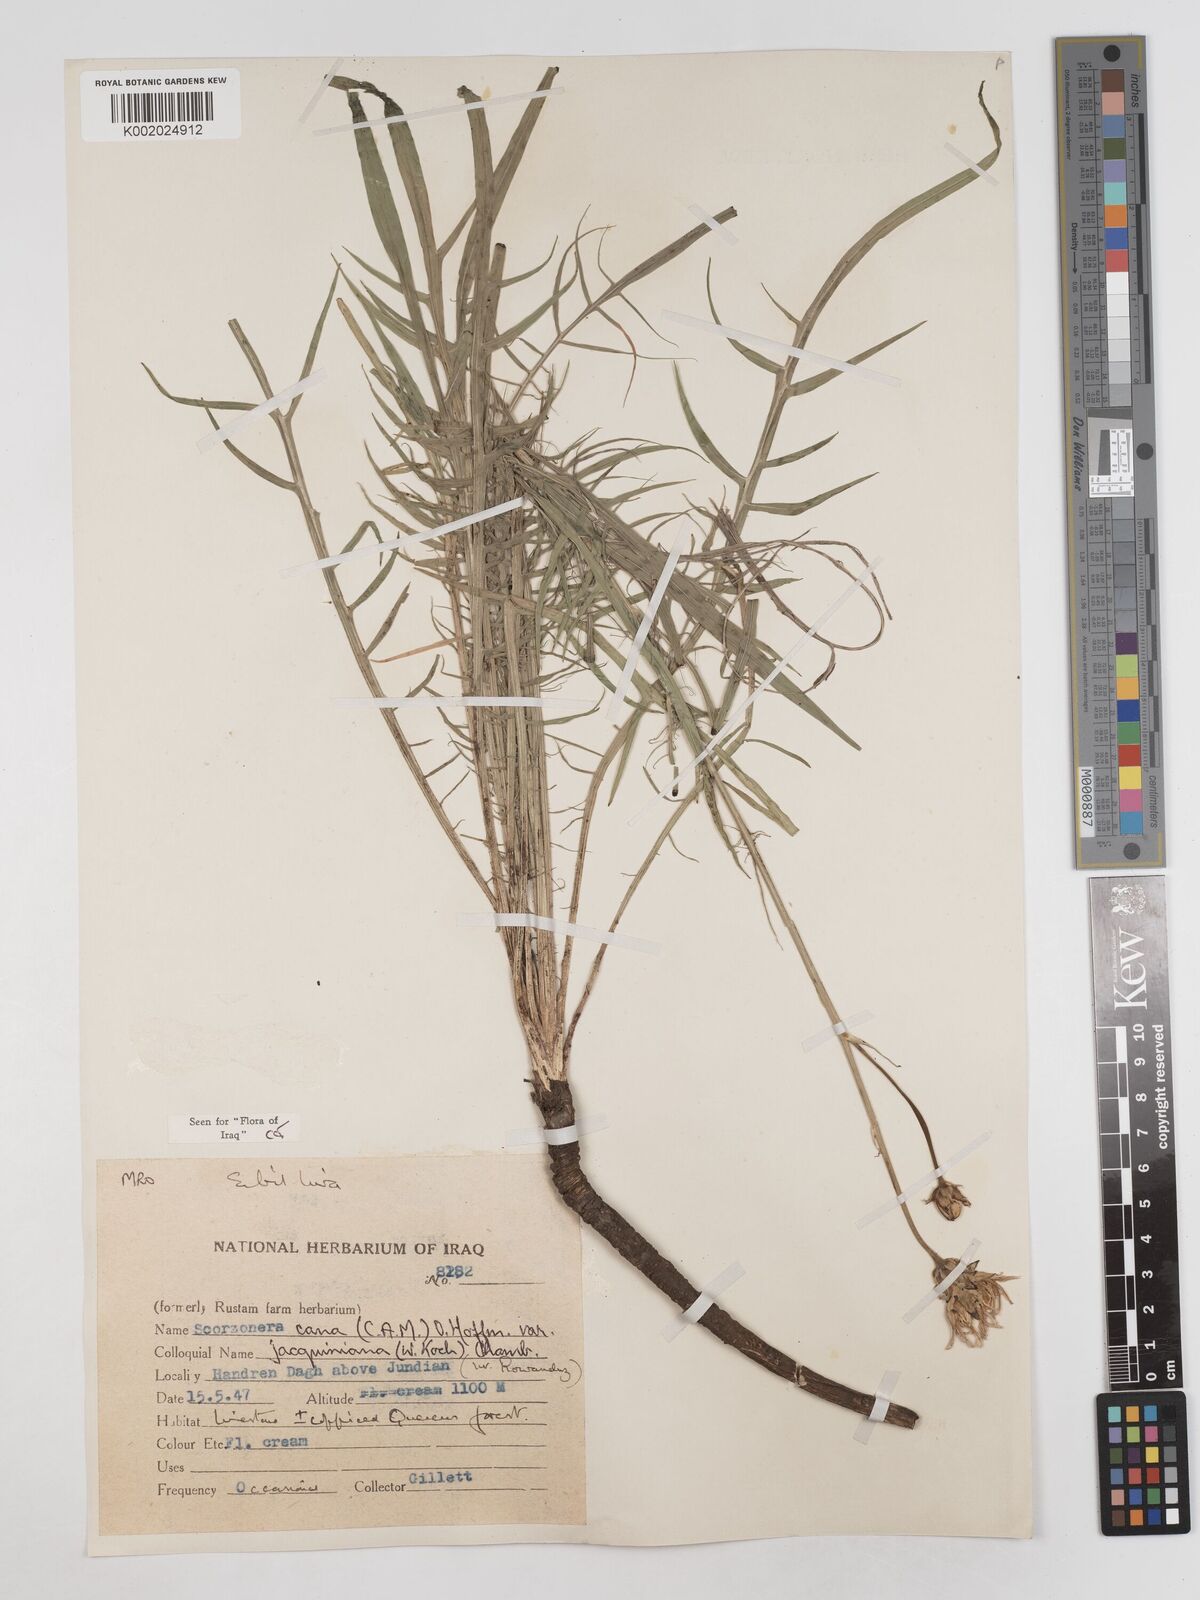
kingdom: Plantae
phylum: Tracheophyta
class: Magnoliopsida
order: Asterales
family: Asteraceae
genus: Scorzonera
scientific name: Scorzonera cana
